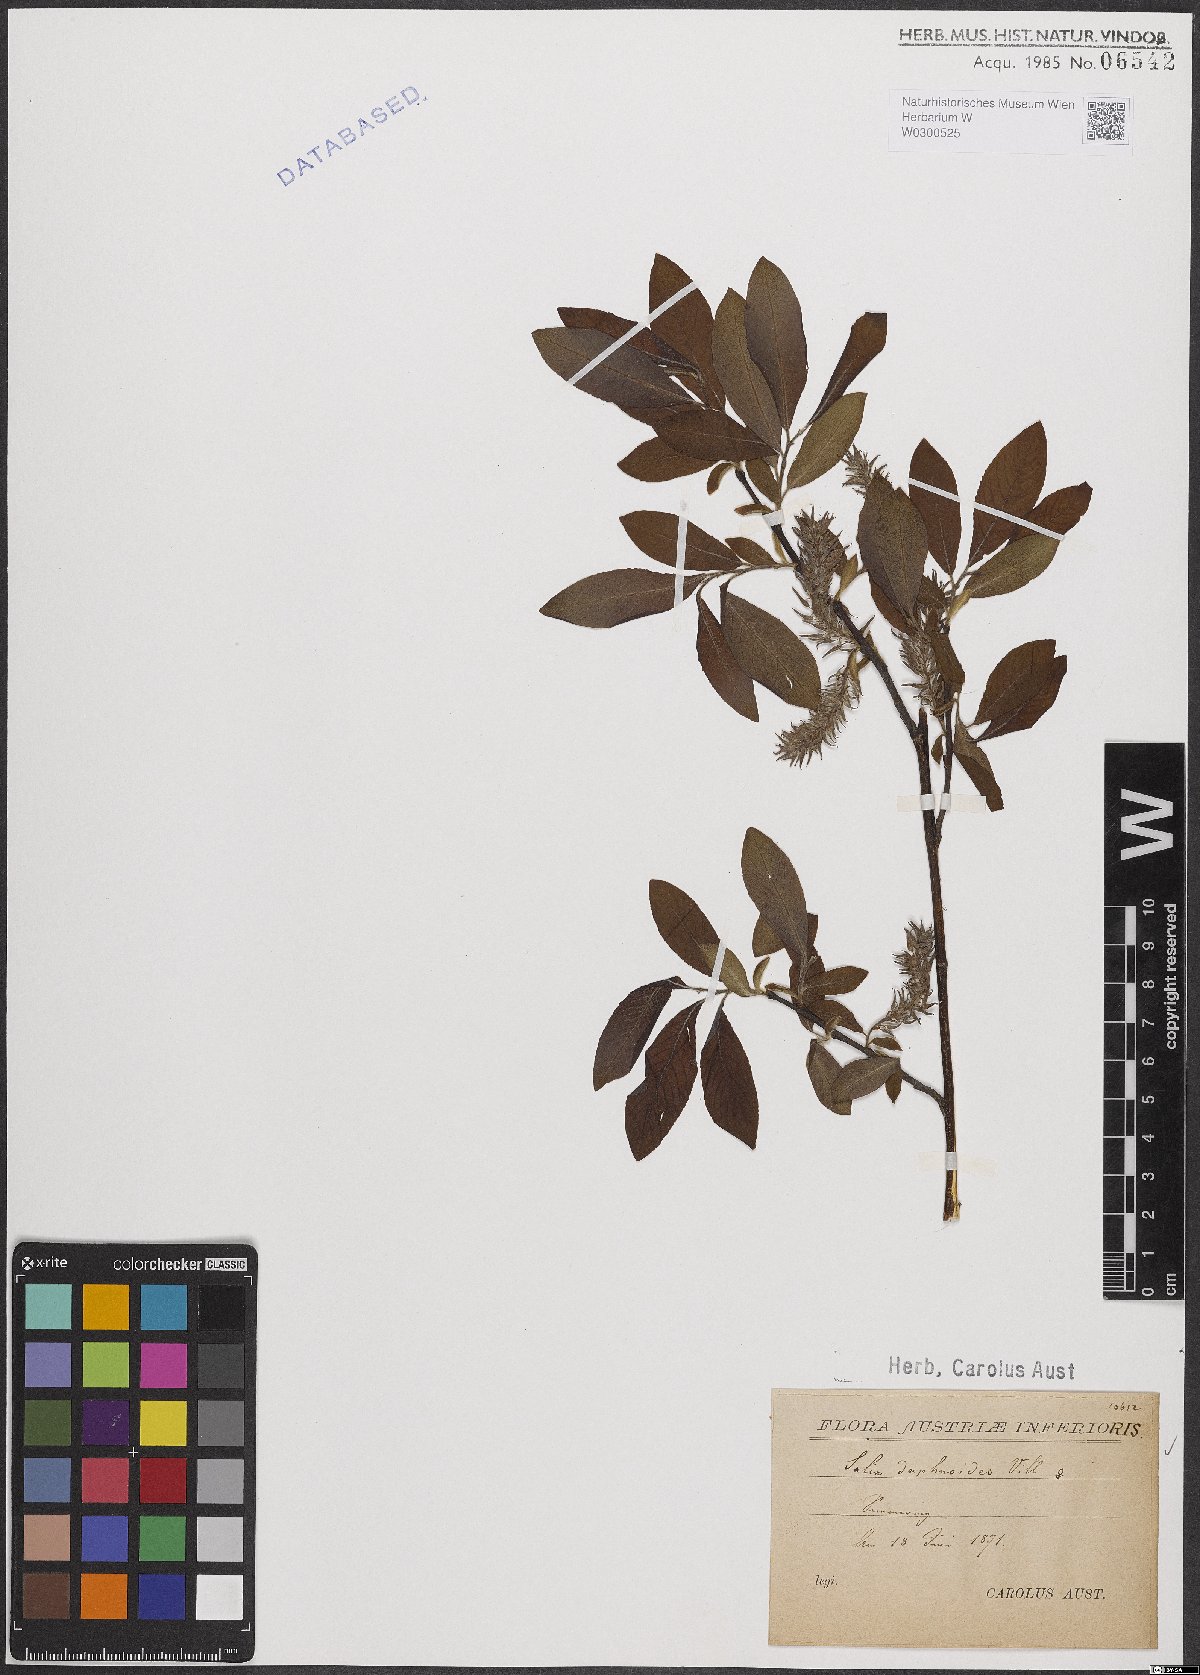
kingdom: Plantae
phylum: Tracheophyta
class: Magnoliopsida
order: Malpighiales
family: Salicaceae
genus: Salix
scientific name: Salix daphnoides
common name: European violet-willow
